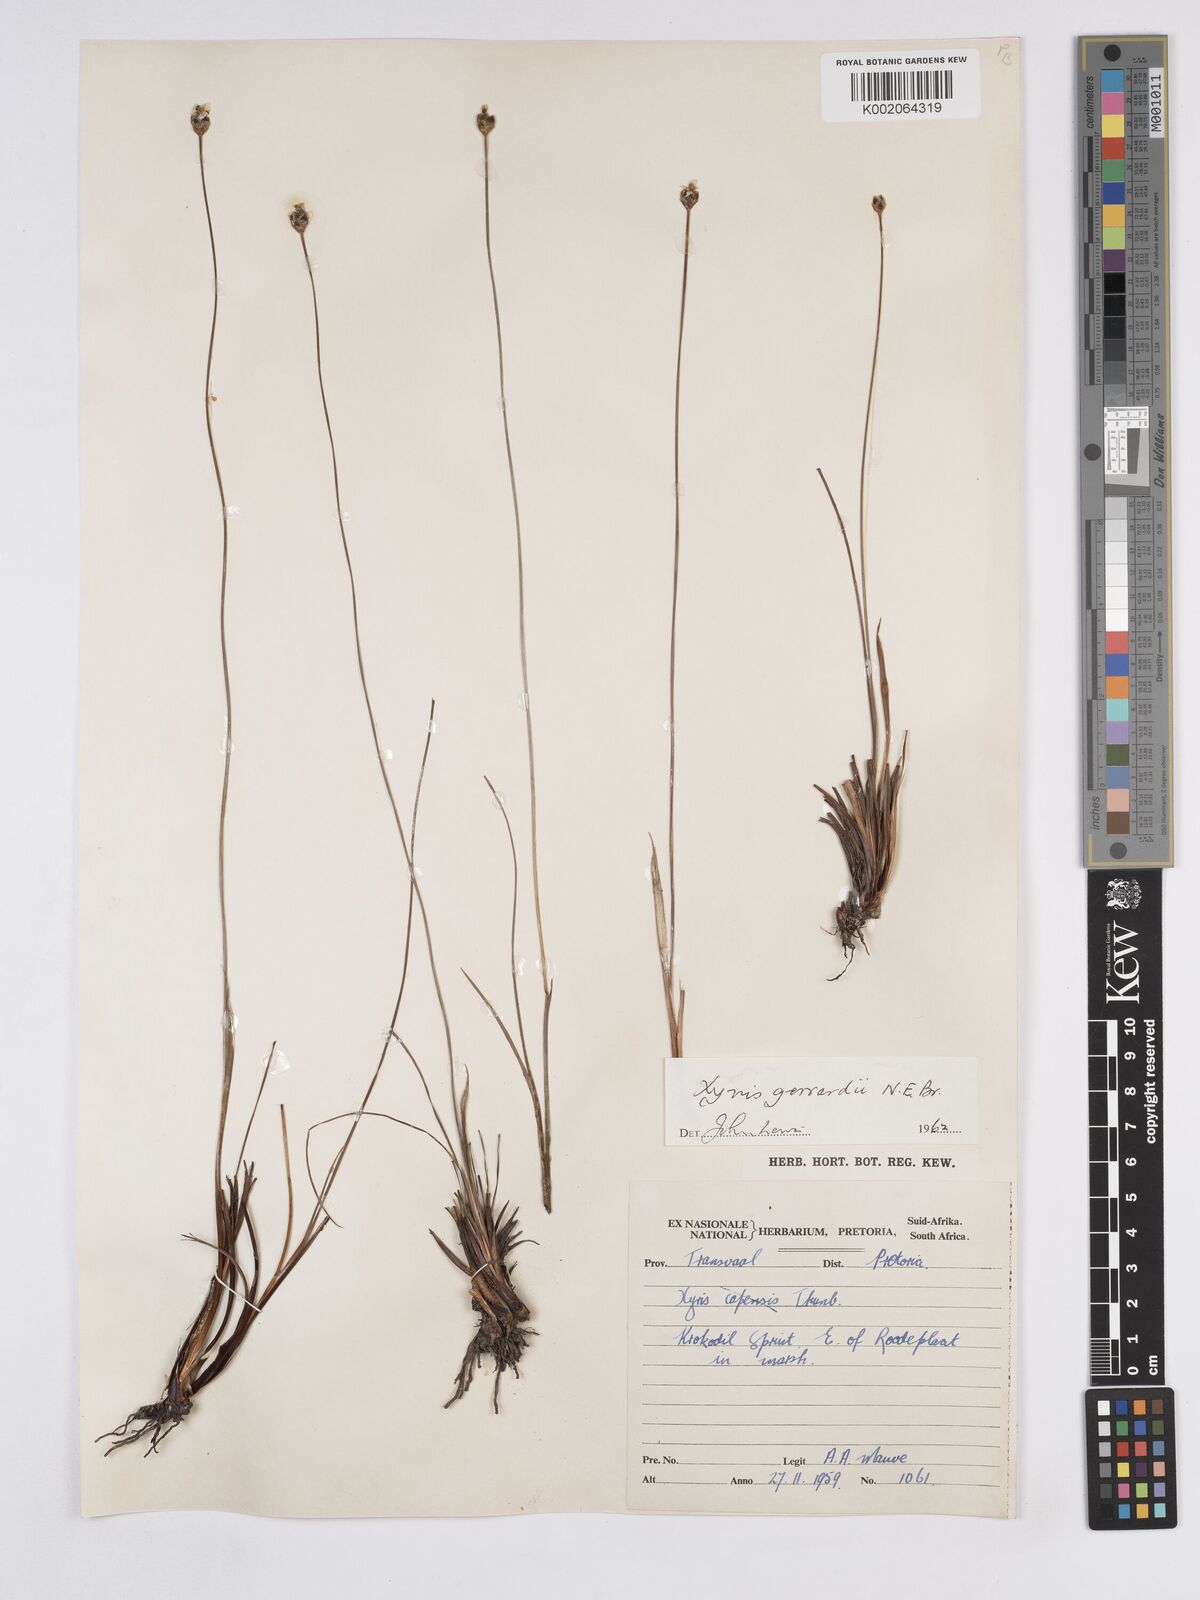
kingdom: Plantae
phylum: Tracheophyta
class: Liliopsida
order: Poales
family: Xyridaceae
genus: Xyris
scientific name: Xyris gerrardii
